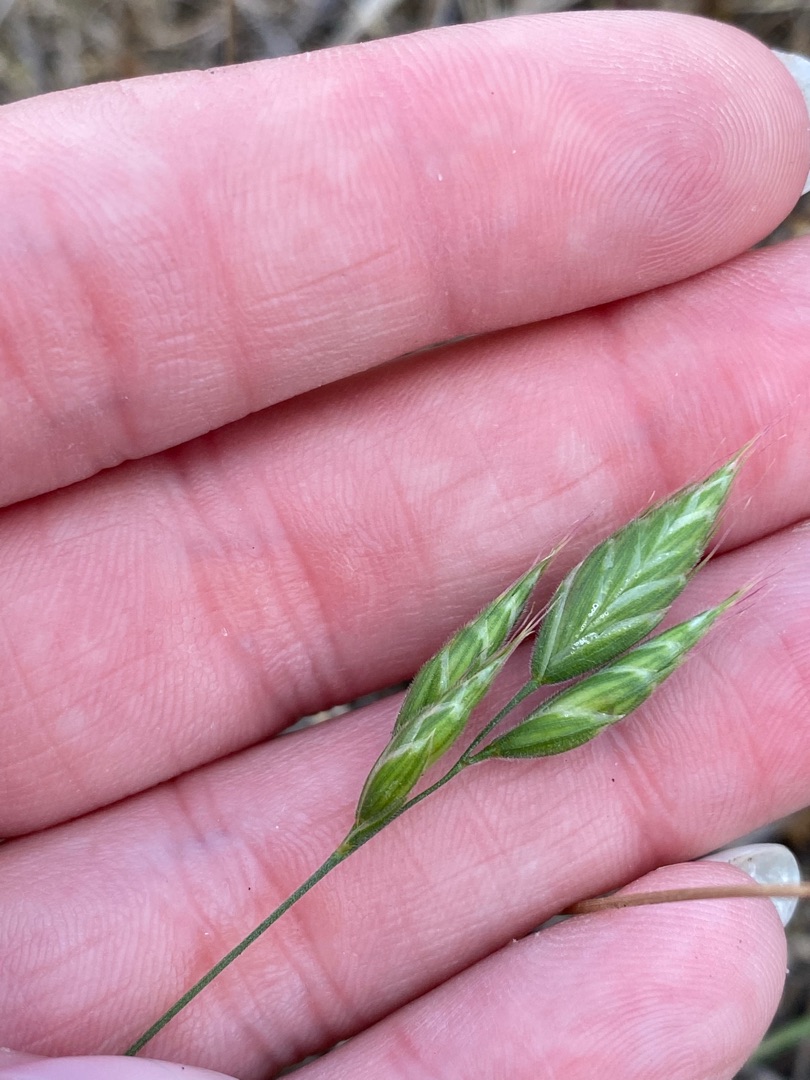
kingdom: Plantae
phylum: Tracheophyta
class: Liliopsida
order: Poales
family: Poaceae
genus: Bromus
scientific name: Bromus hordeaceus
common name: Blød hejre
